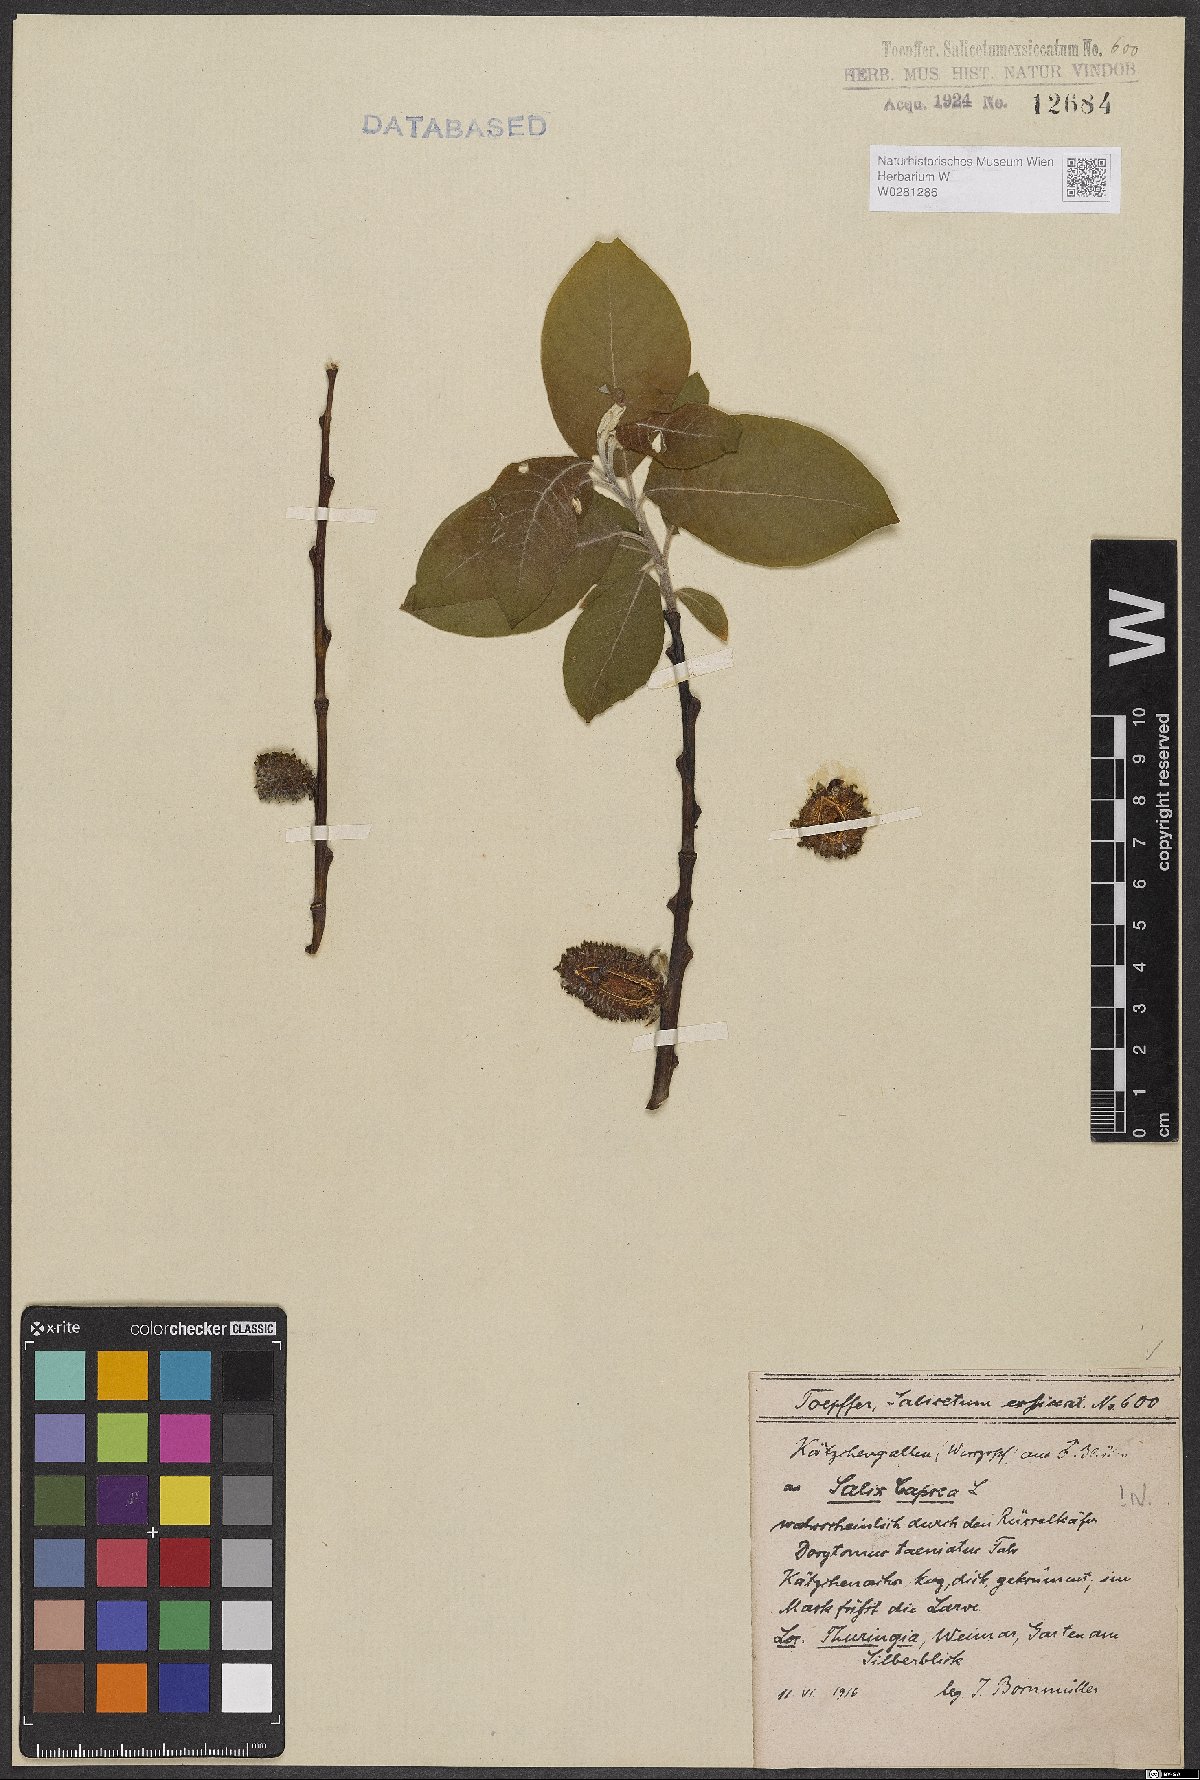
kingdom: Plantae
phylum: Tracheophyta
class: Magnoliopsida
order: Malpighiales
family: Salicaceae
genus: Salix
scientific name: Salix caprea
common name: Goat willow
